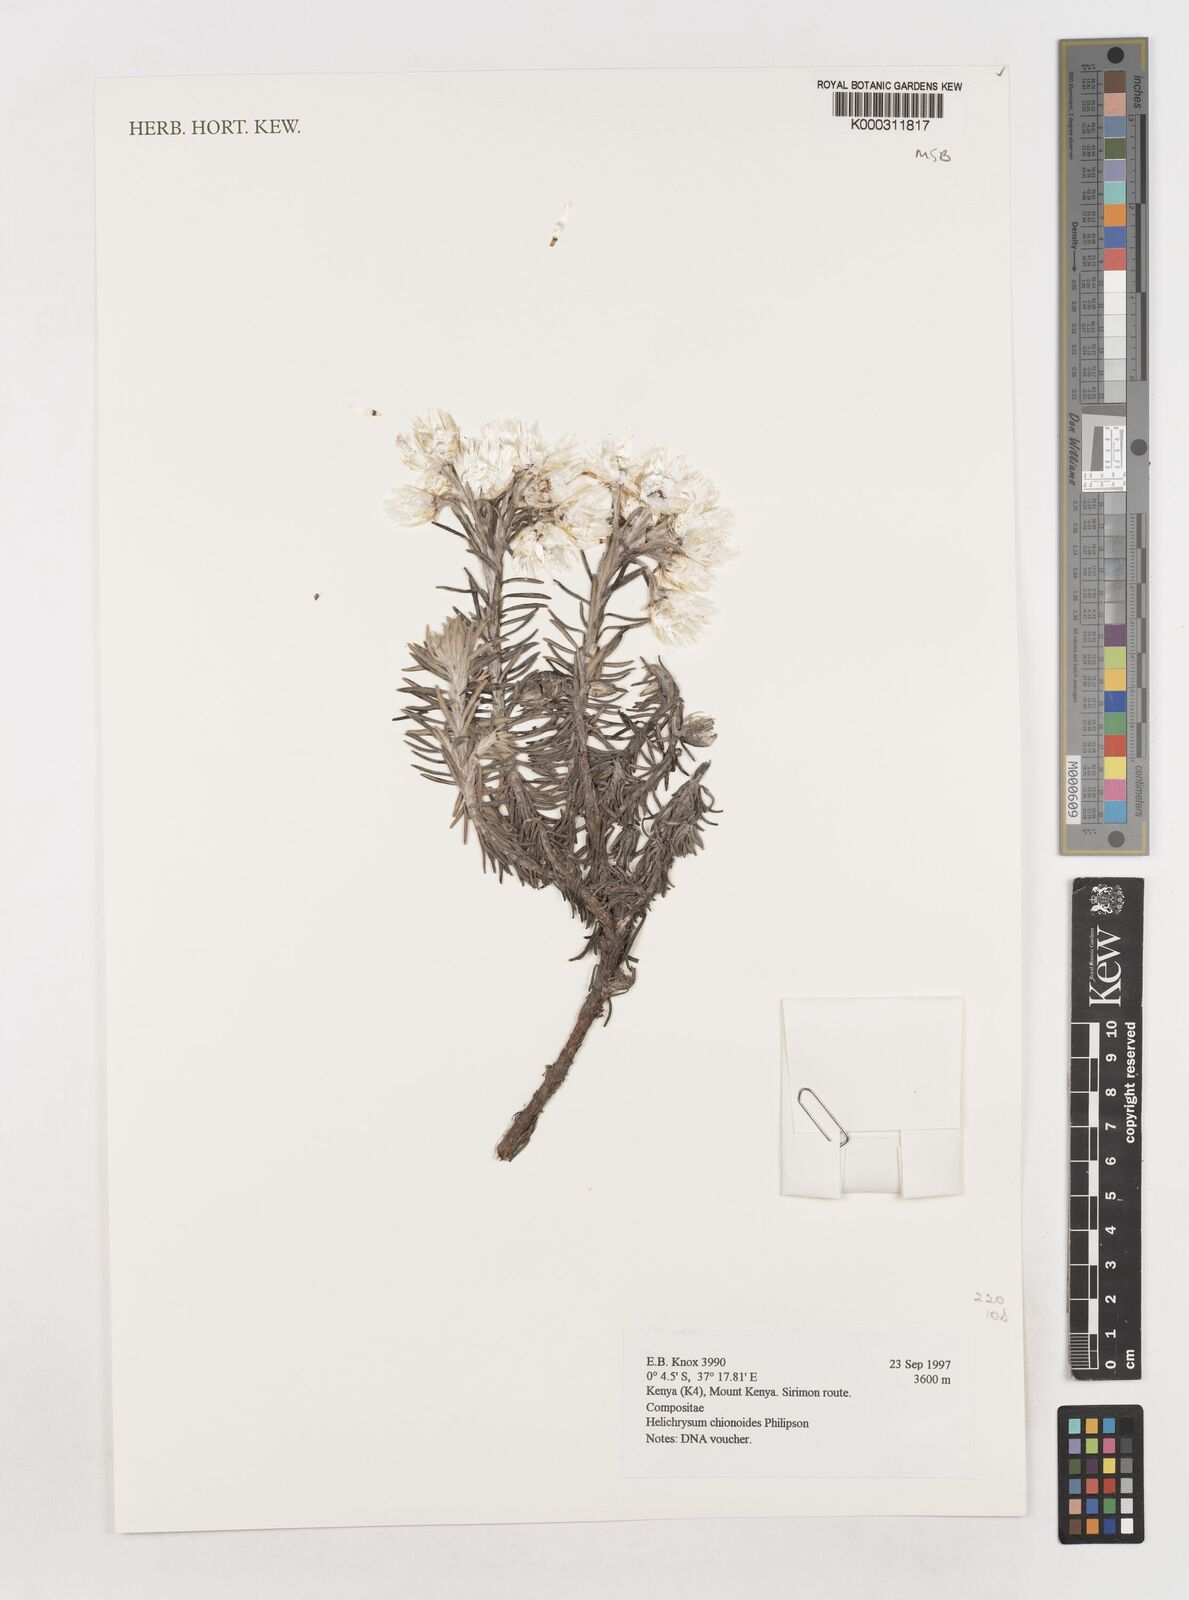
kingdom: Plantae
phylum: Tracheophyta
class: Magnoliopsida
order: Asterales
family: Asteraceae
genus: Helichrysum
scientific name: Helichrysum chionoides
